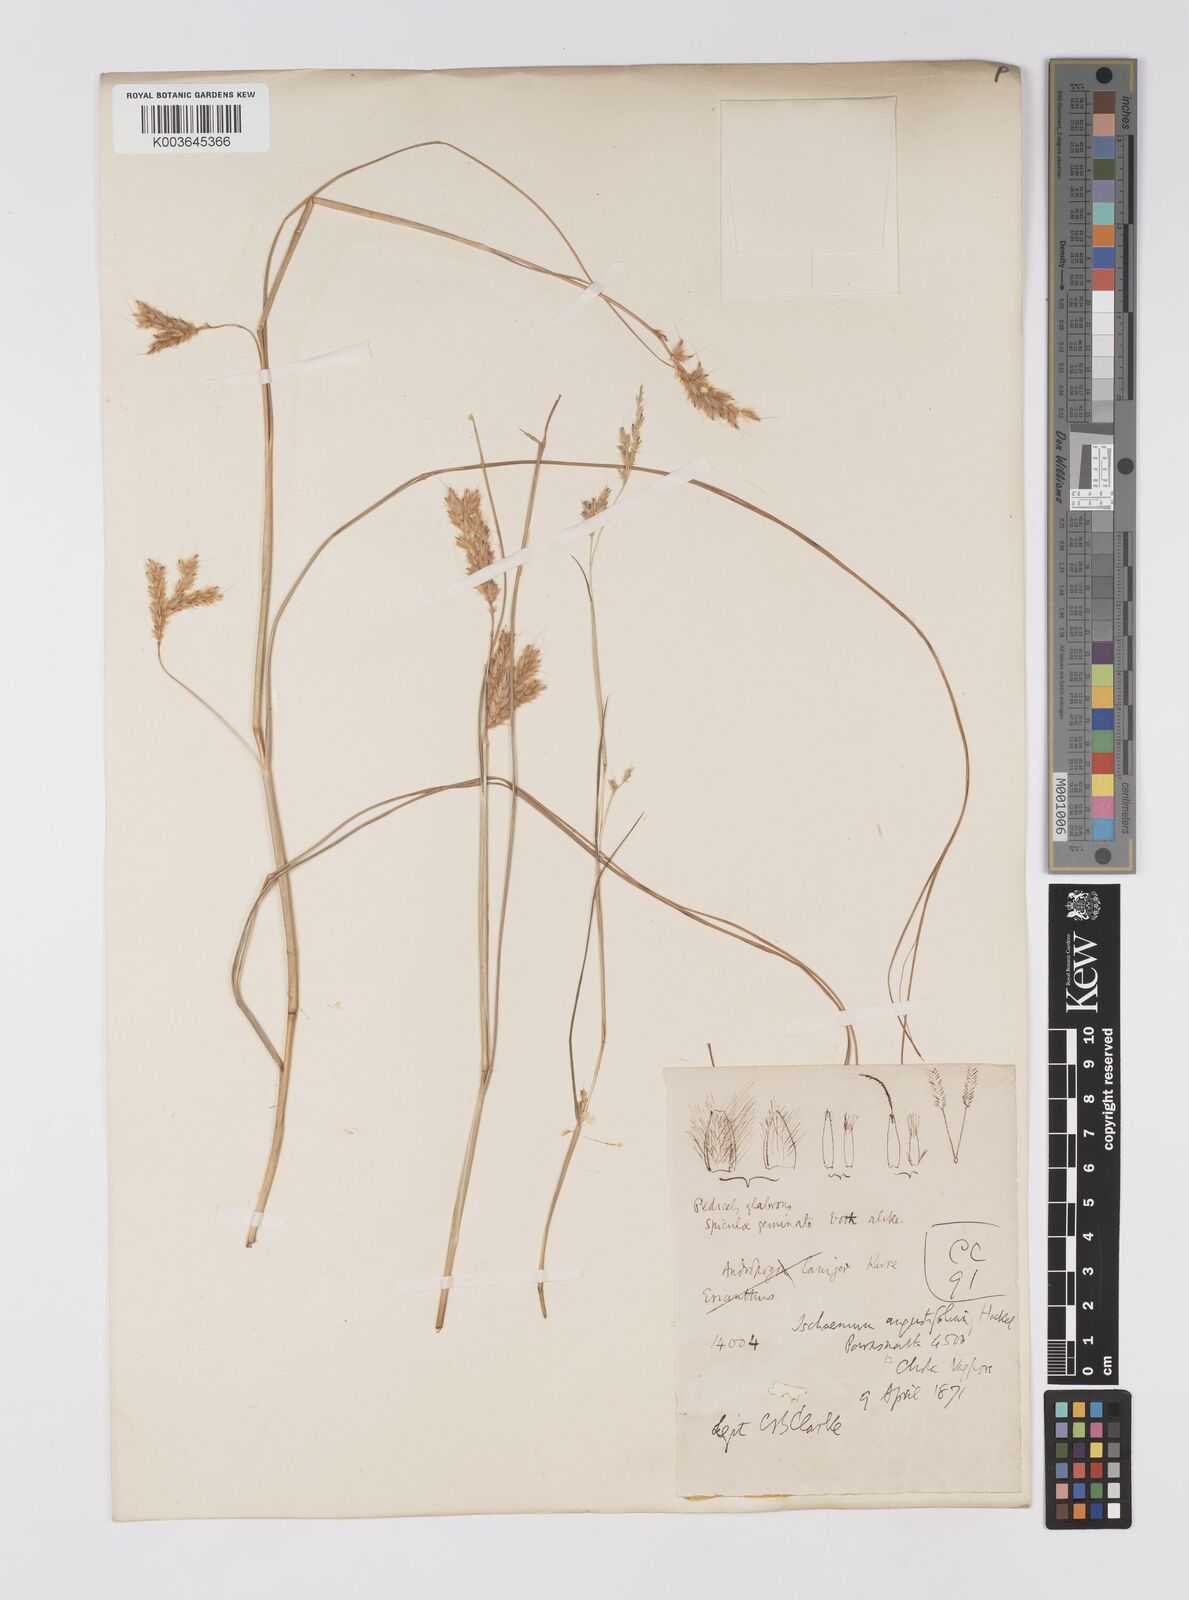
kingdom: Plantae
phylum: Tracheophyta
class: Liliopsida
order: Poales
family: Poaceae
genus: Eulaliopsis
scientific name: Eulaliopsis binata
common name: Baib grass
